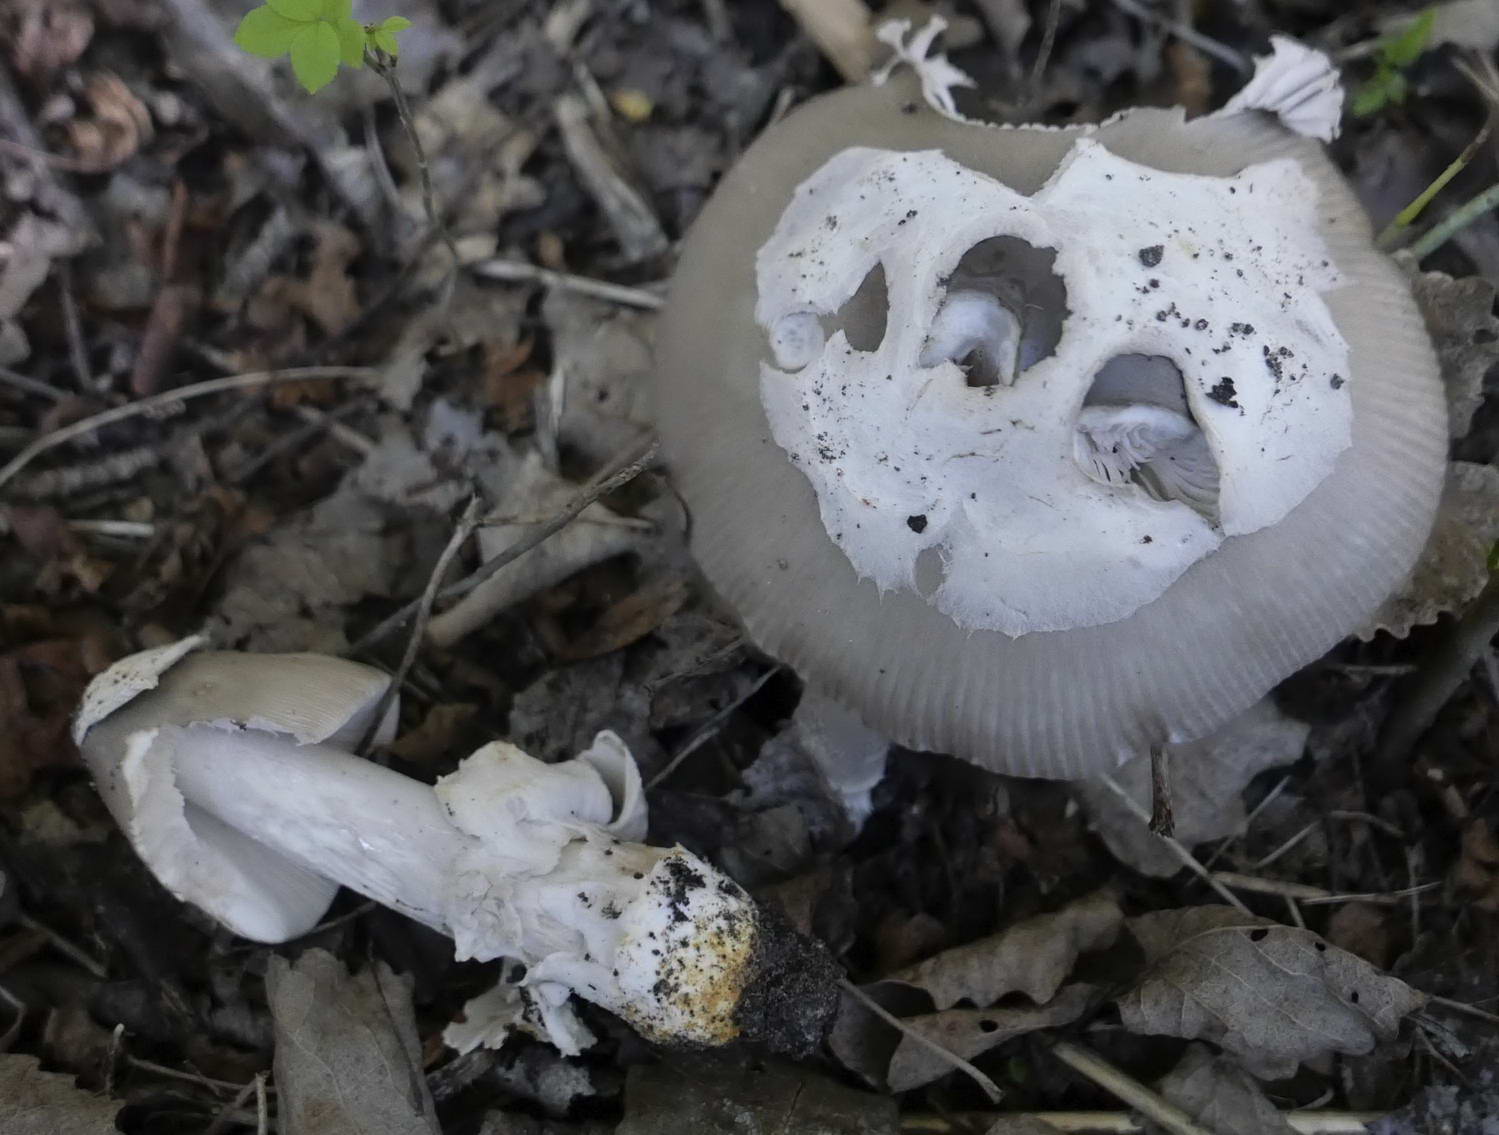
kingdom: Fungi
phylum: Basidiomycota
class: Agaricomycetes
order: Agaricales
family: Amanitaceae
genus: Amanita
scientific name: Amanita
